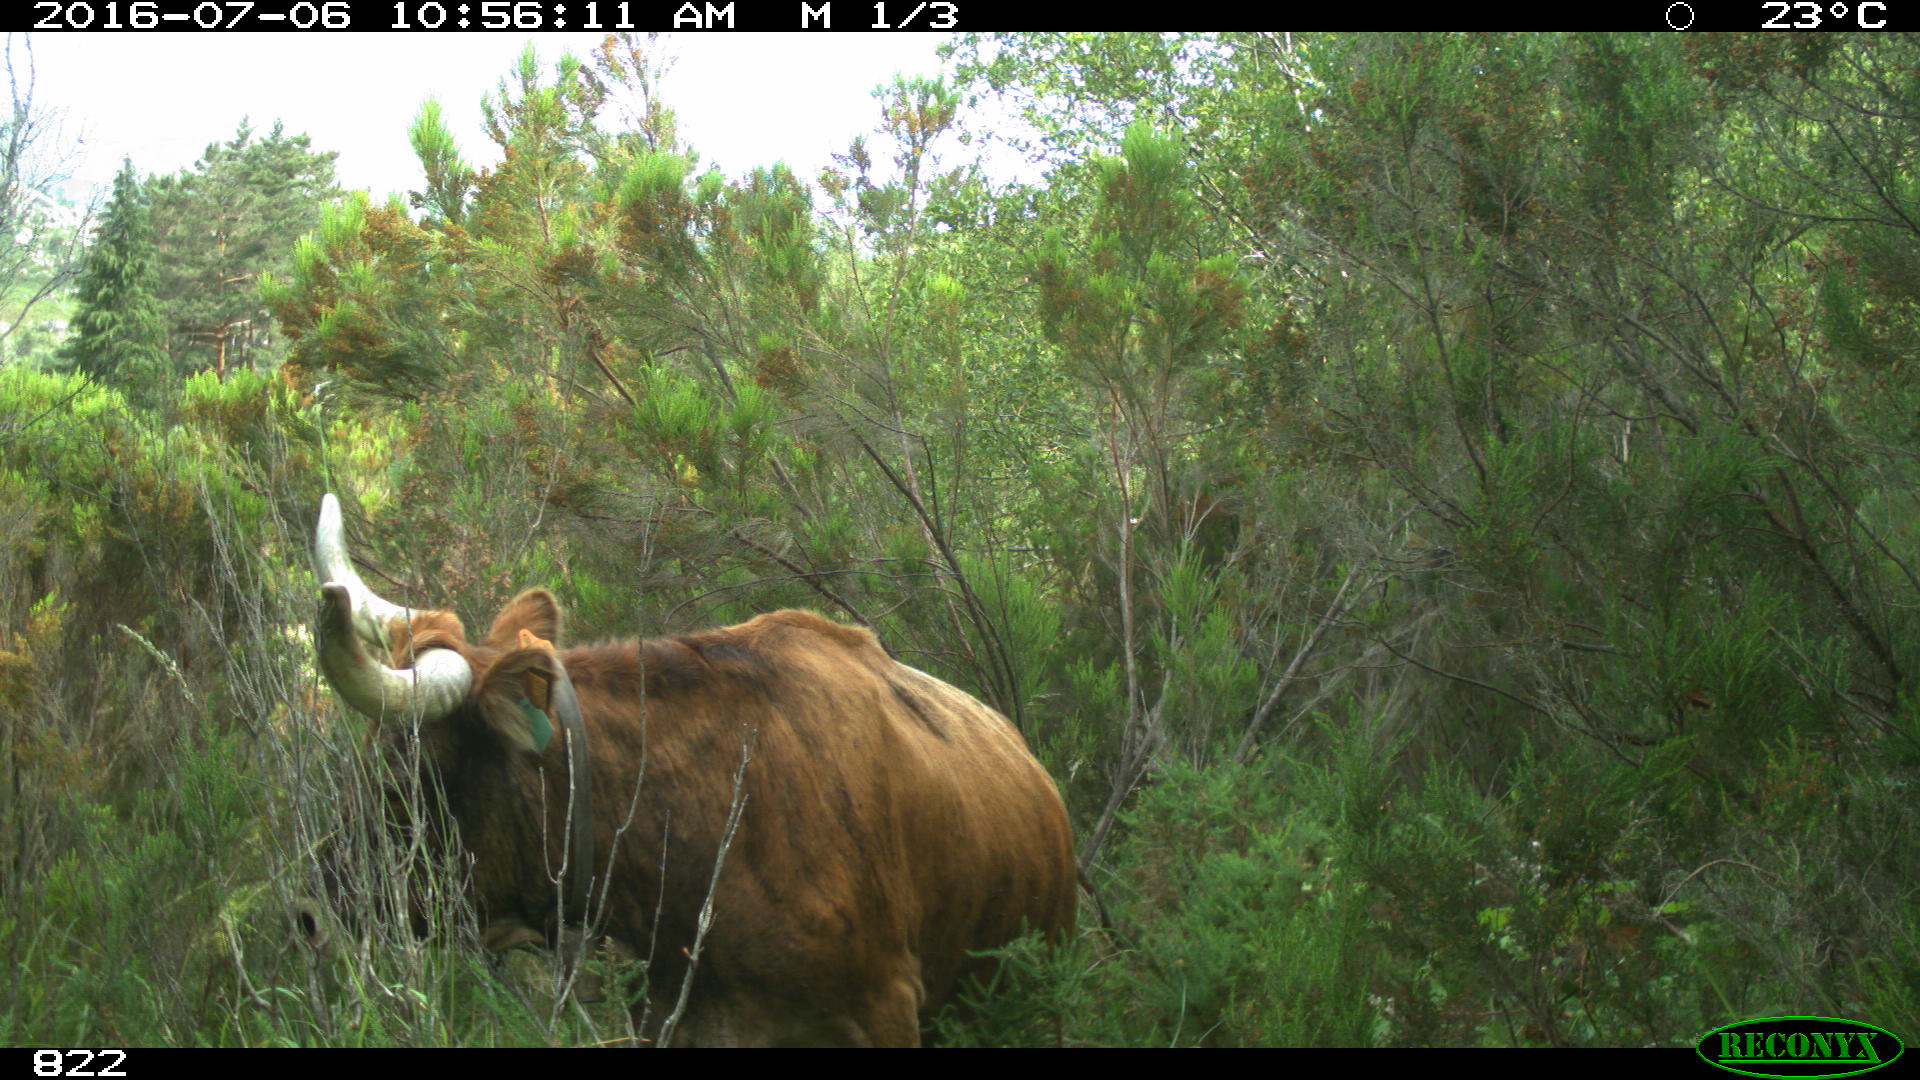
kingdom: Animalia
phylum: Chordata
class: Mammalia
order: Artiodactyla
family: Bovidae
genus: Bos
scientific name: Bos taurus
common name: Domesticated cattle
